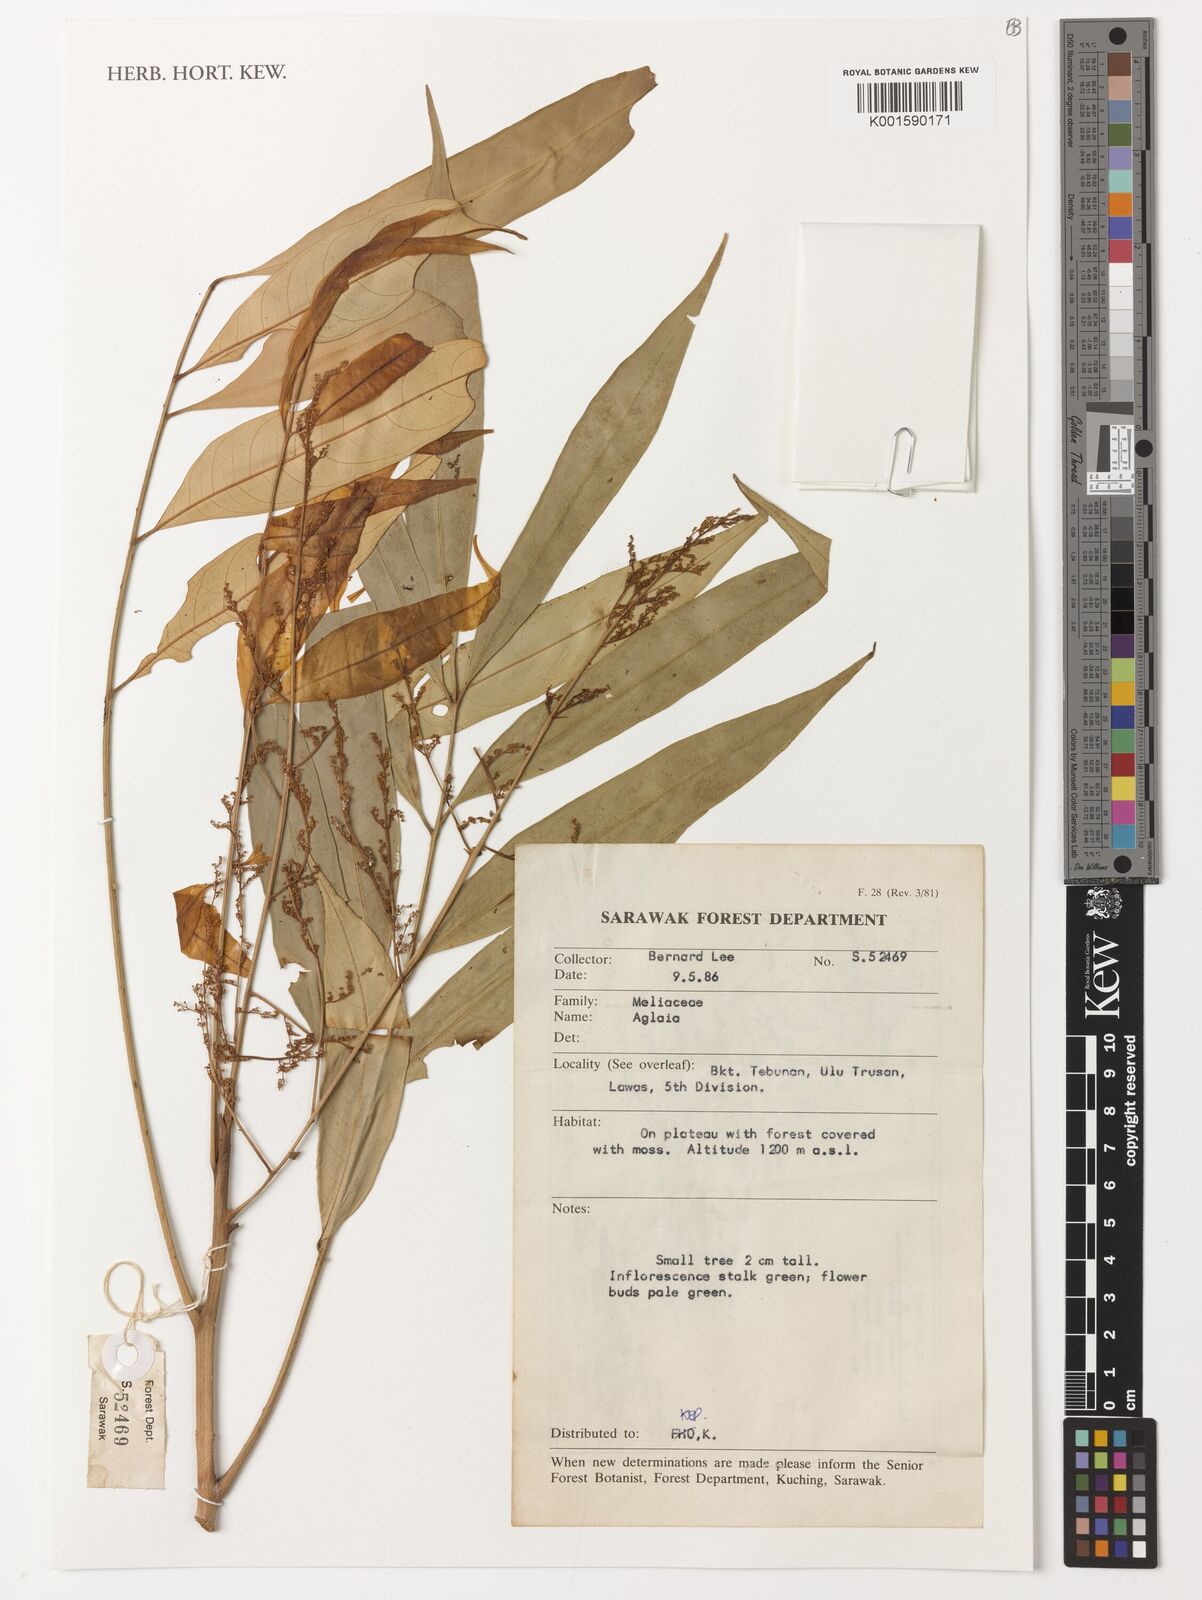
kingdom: Plantae
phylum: Tracheophyta
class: Magnoliopsida
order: Sapindales
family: Meliaceae
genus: Aglaia
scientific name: Aglaia
